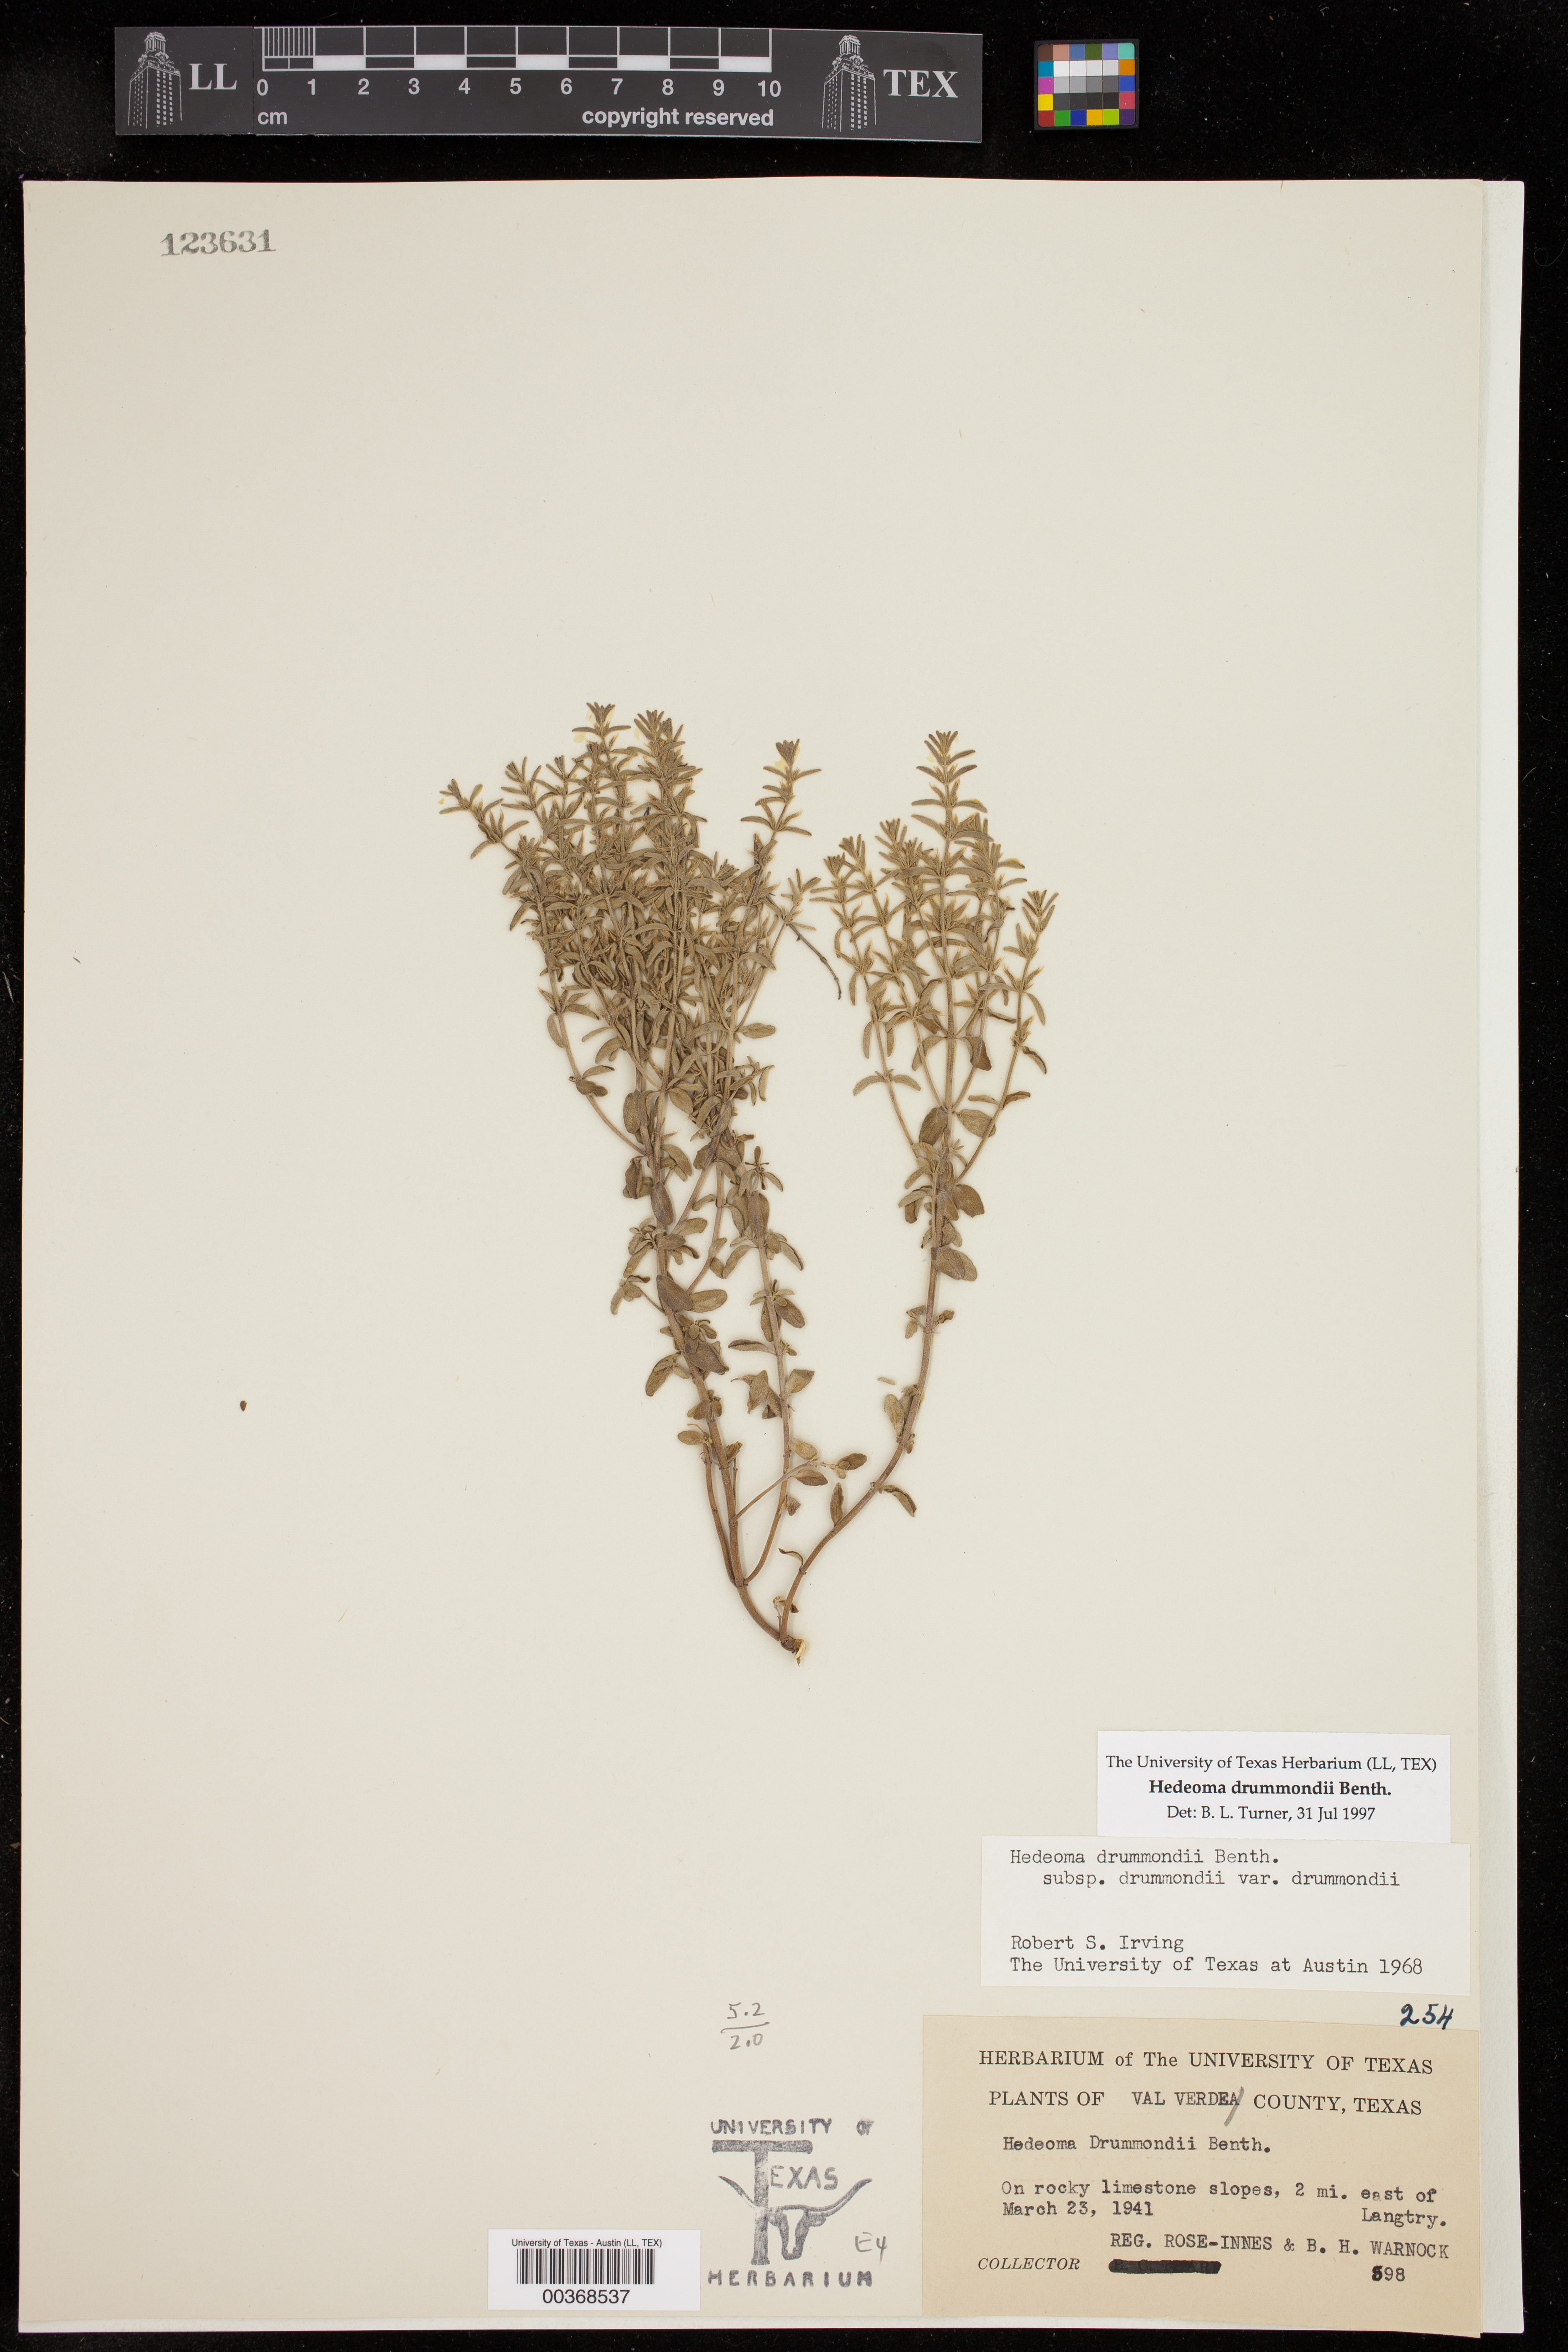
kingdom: Plantae
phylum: Tracheophyta
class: Magnoliopsida
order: Lamiales
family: Lamiaceae
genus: Hedeoma
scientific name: Hedeoma drummondii
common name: New mexico pennyroyal
